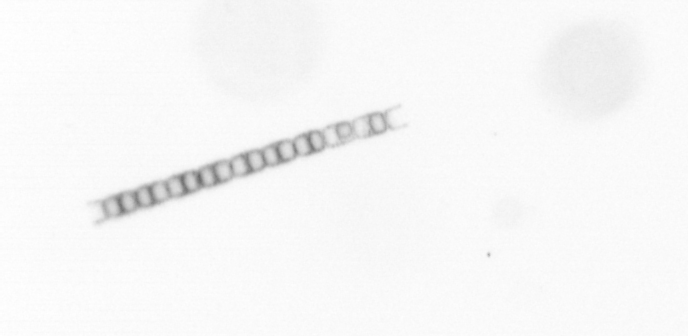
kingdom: Chromista
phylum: Ochrophyta
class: Bacillariophyceae
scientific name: Bacillariophyceae
